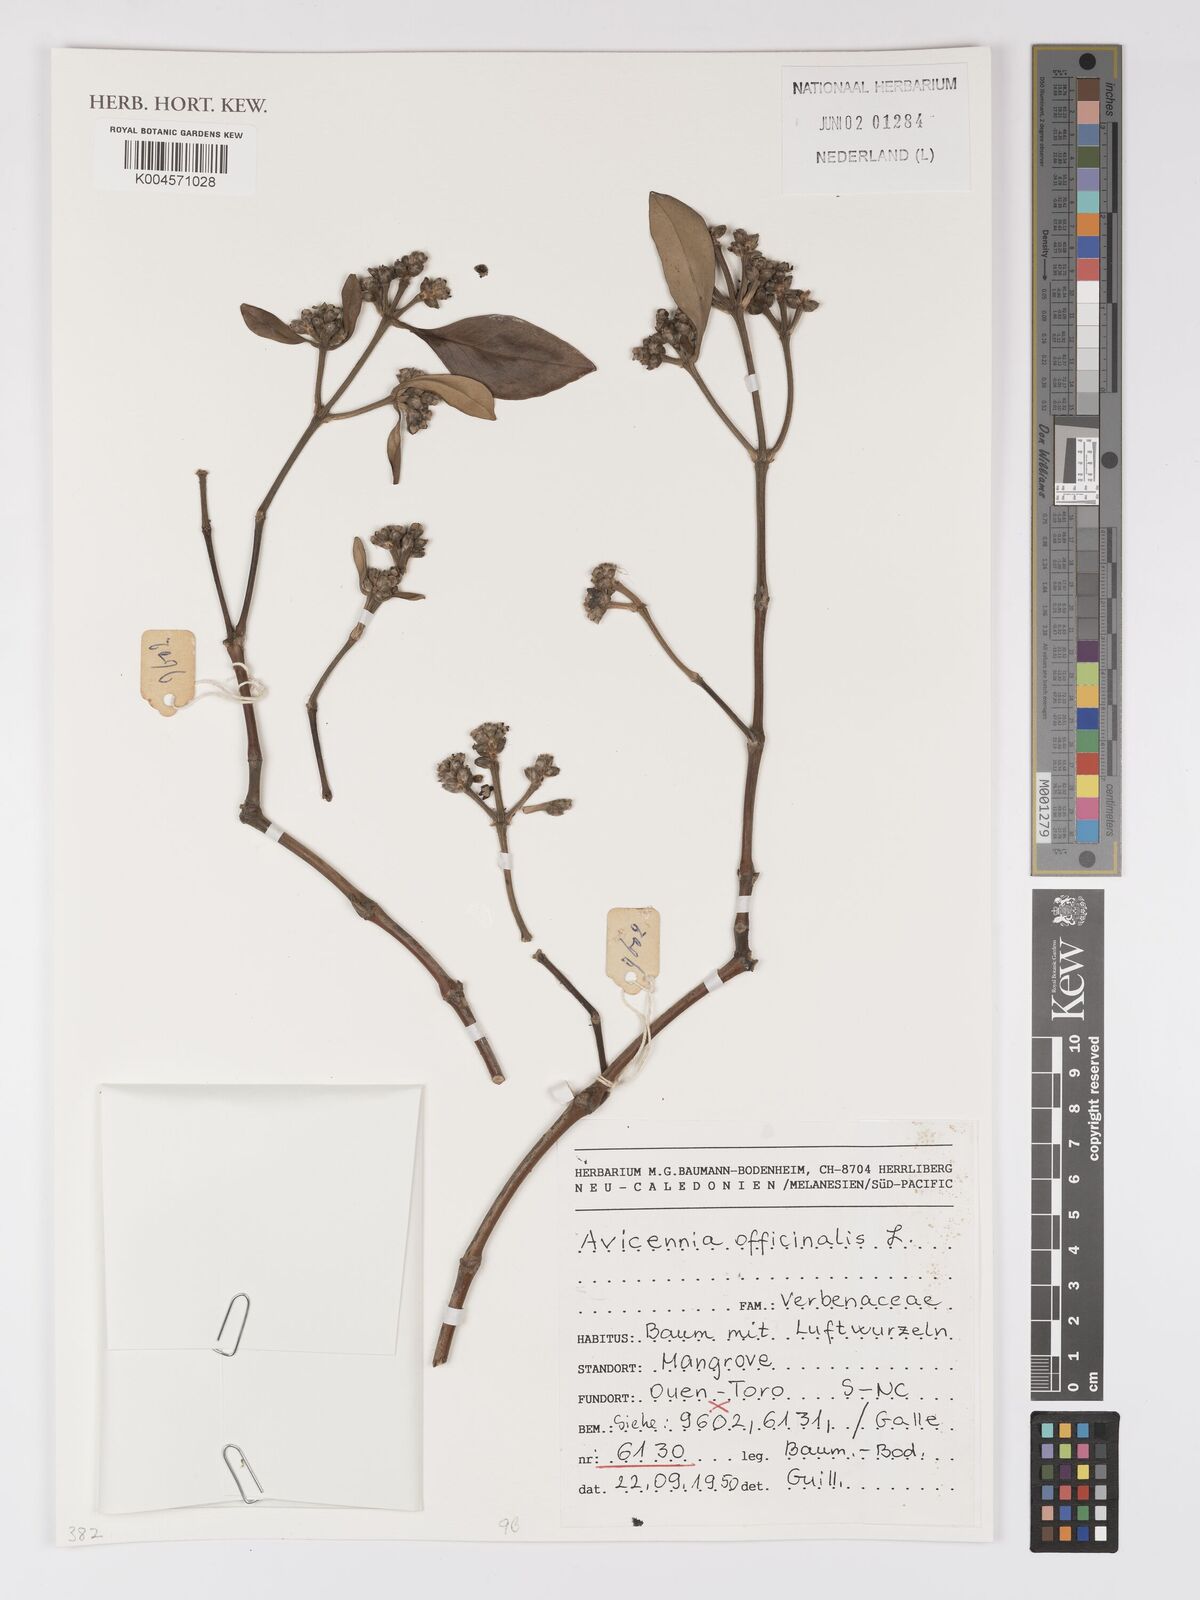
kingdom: Plantae
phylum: Tracheophyta
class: Magnoliopsida
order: Lamiales
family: Acanthaceae
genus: Avicennia
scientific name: Avicennia officinalis
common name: Baen
